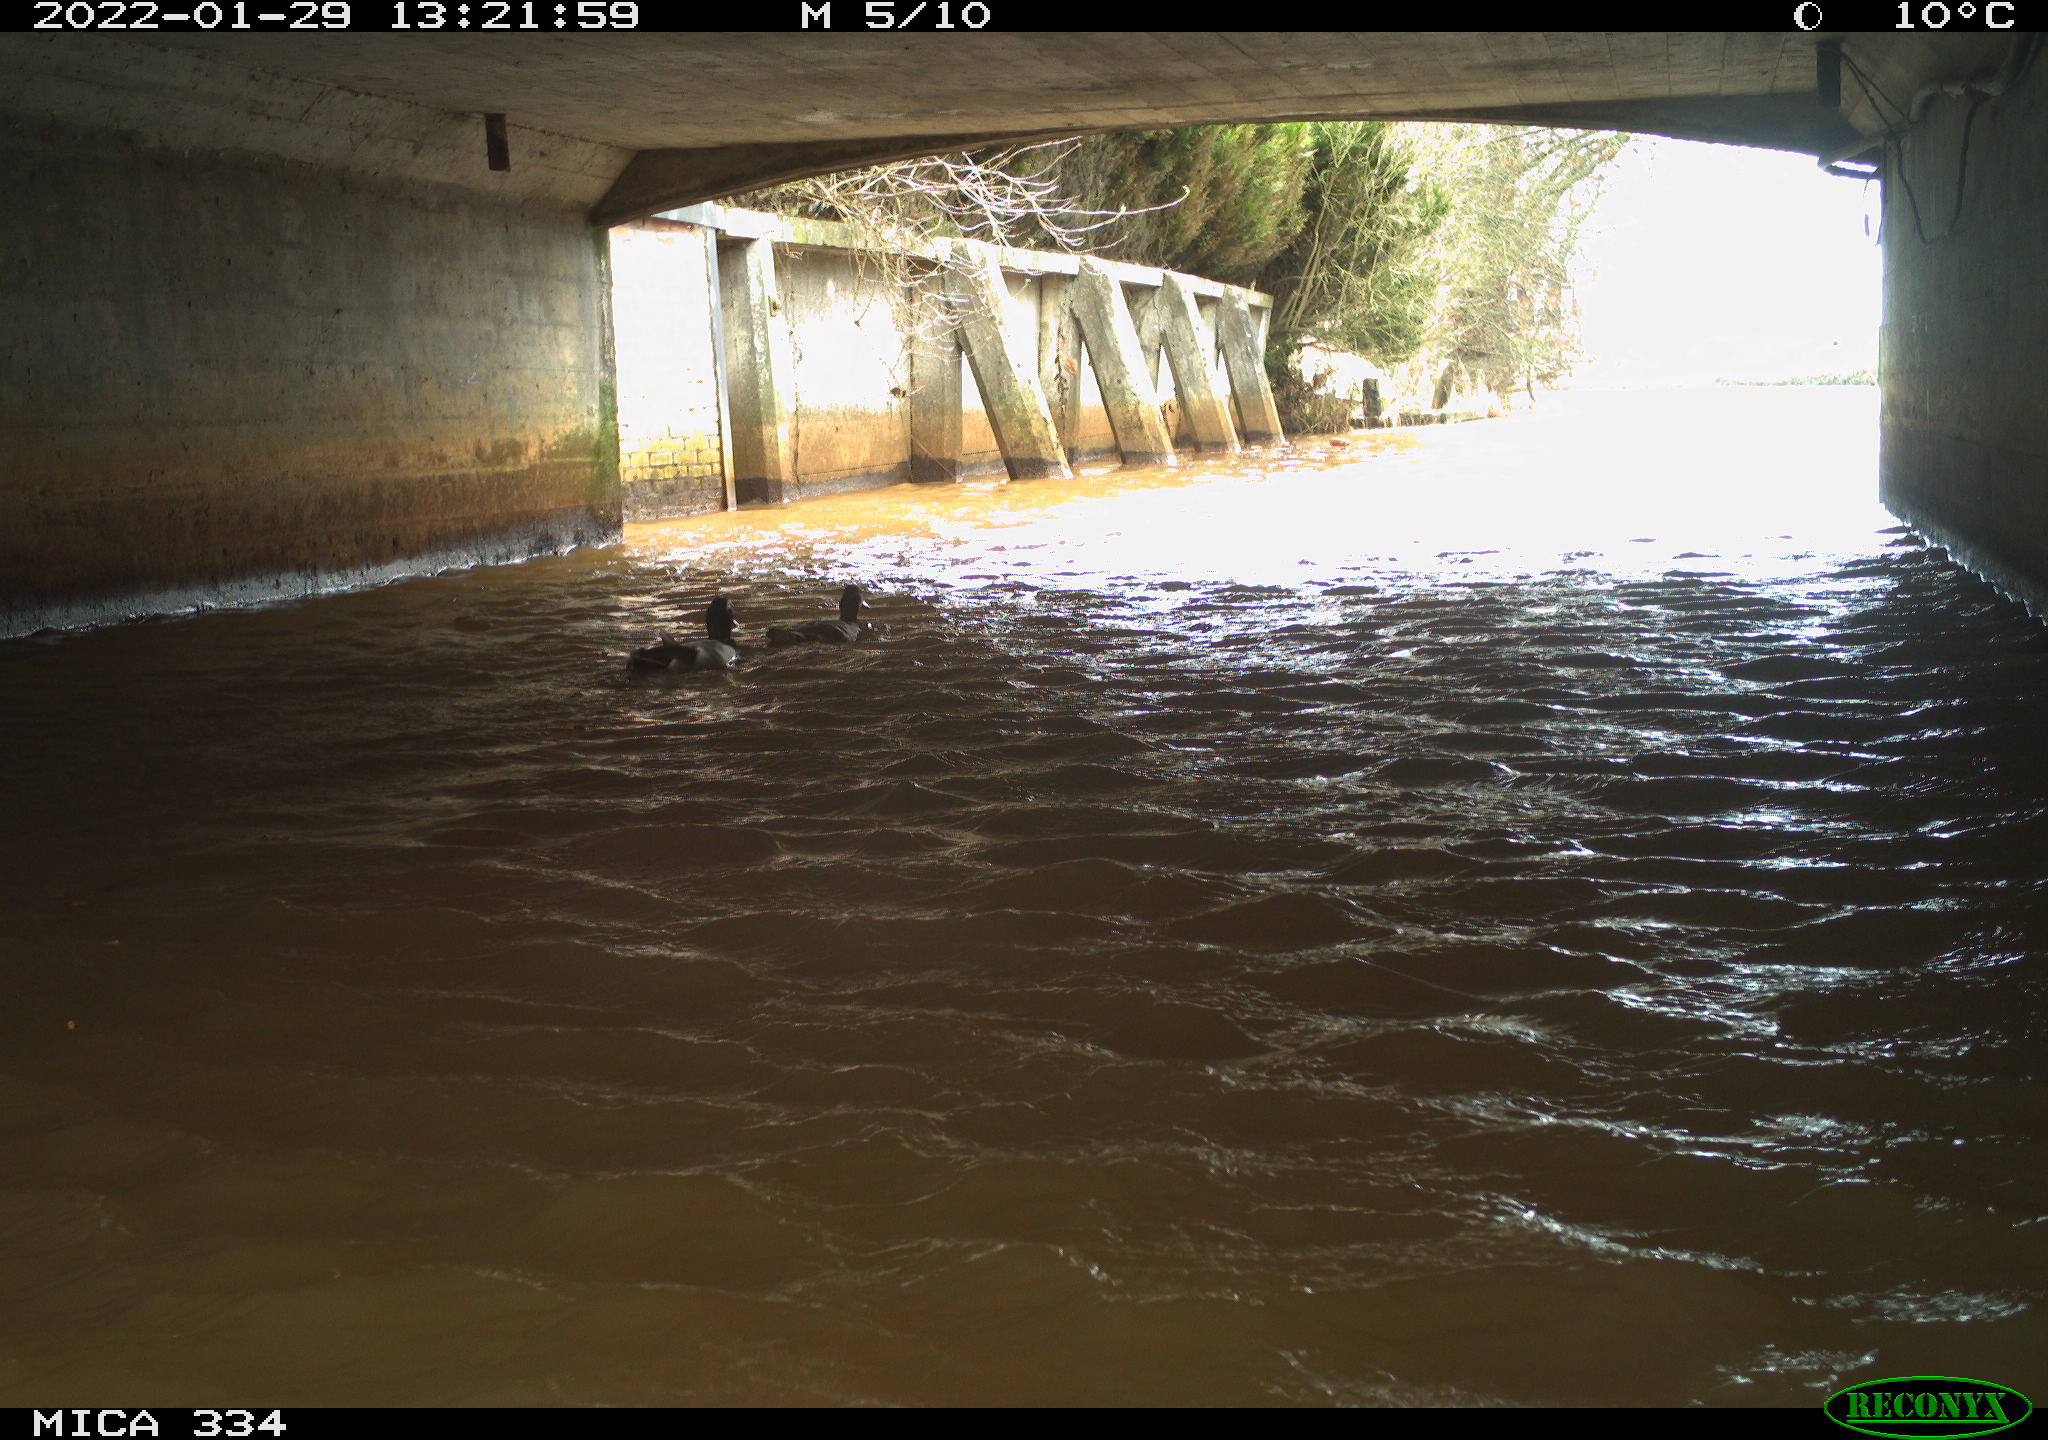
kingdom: Animalia
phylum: Chordata
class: Aves
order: Anseriformes
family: Anatidae
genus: Anas
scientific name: Anas platyrhynchos
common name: Mallard
